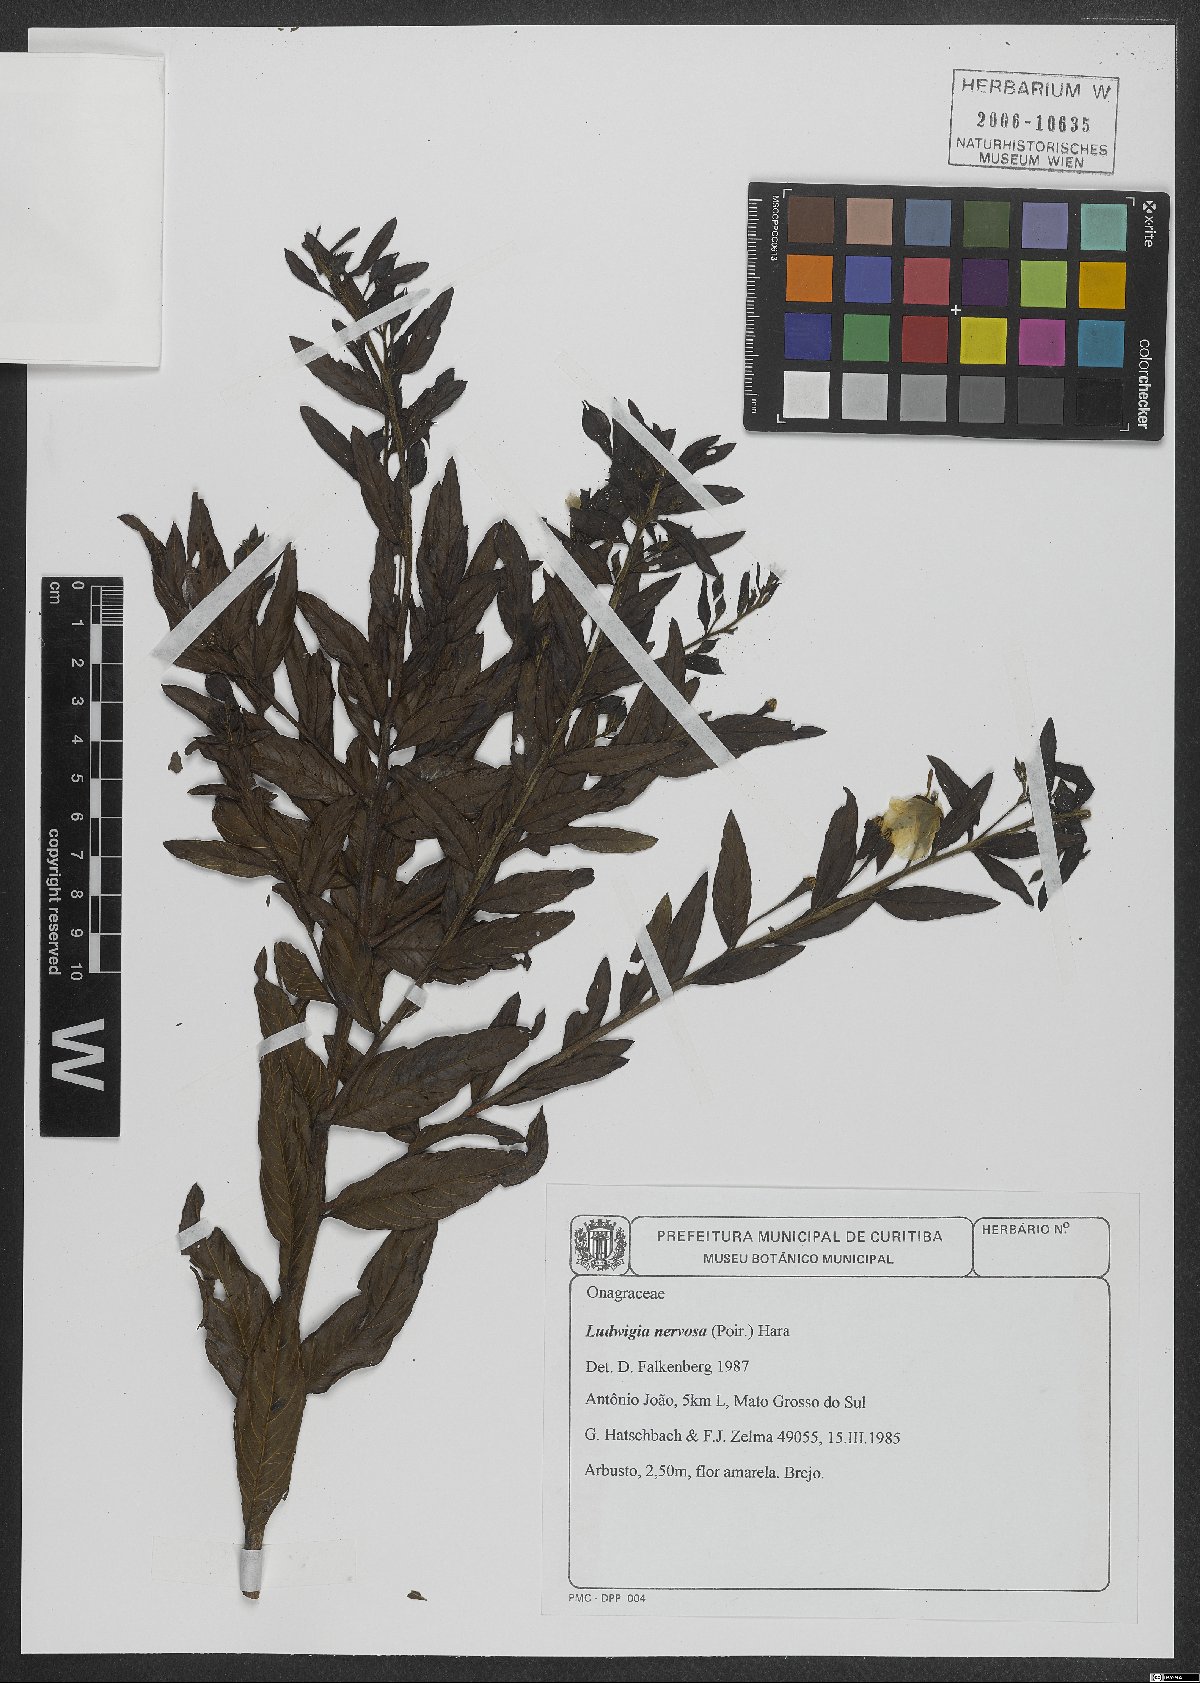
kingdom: Plantae
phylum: Tracheophyta
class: Magnoliopsida
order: Myrtales
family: Onagraceae
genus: Ludwigia
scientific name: Ludwigia nervosa
